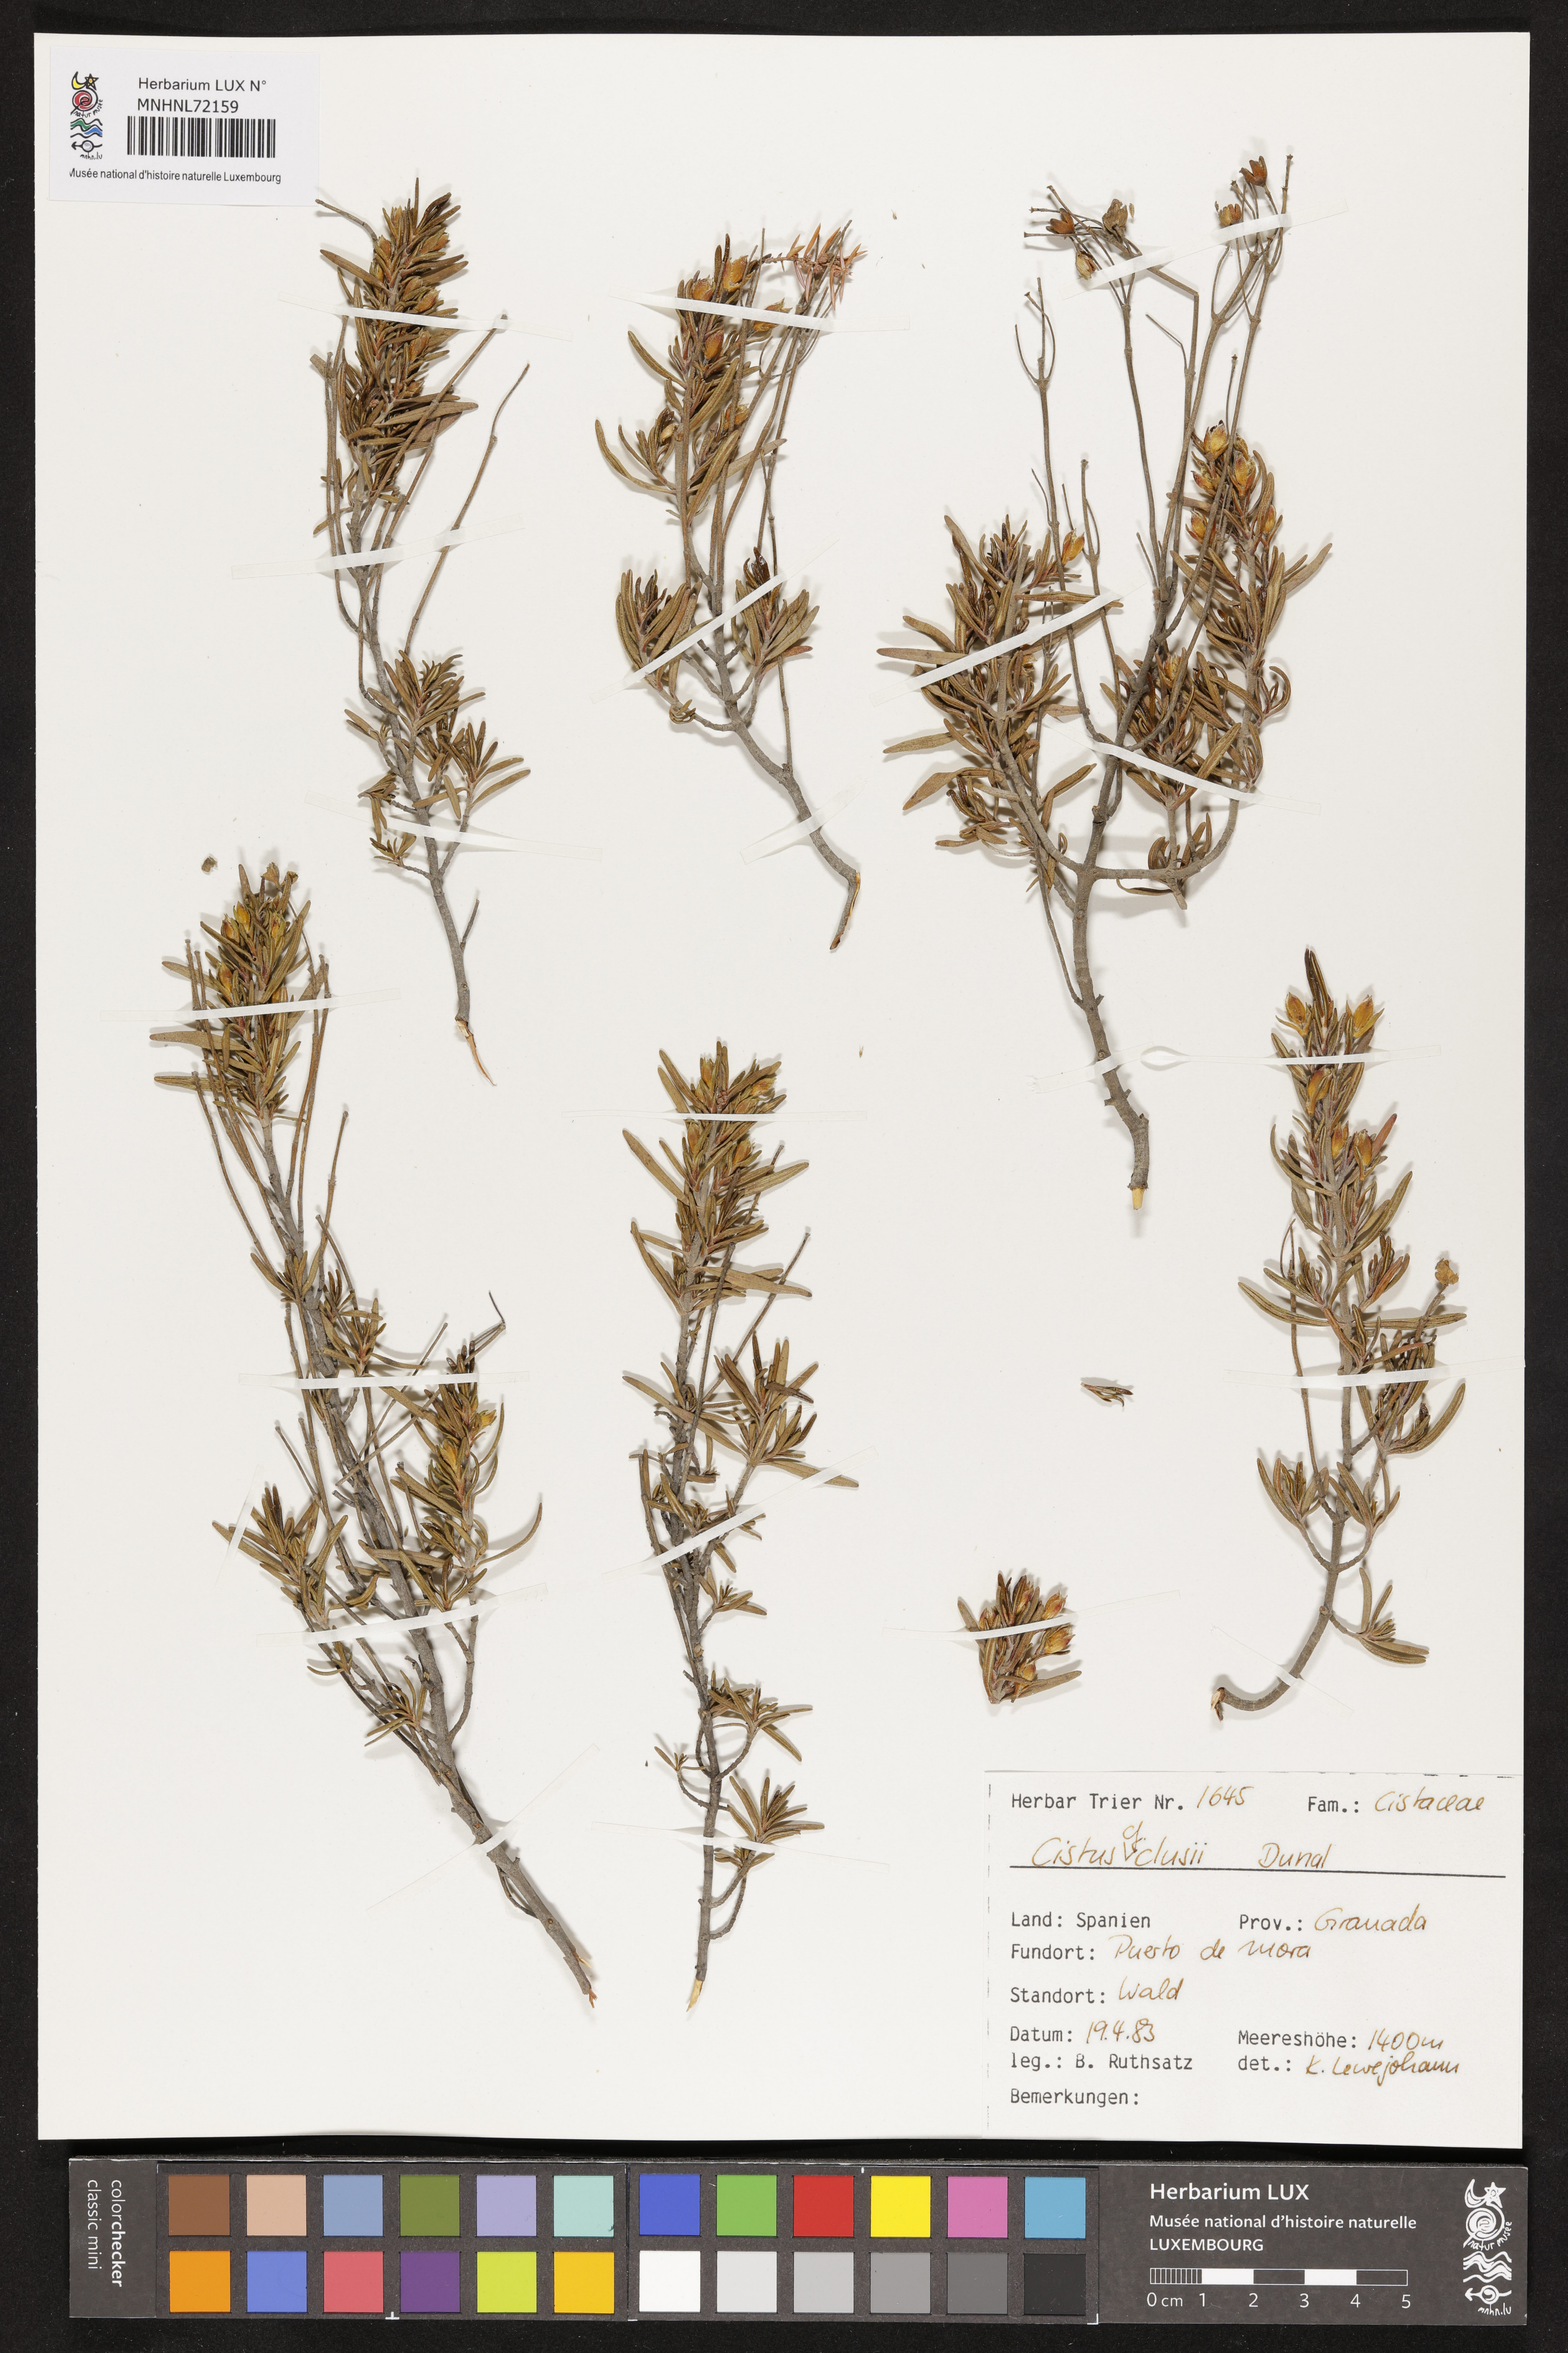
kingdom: Plantae
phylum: Tracheophyta
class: Magnoliopsida
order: Malvales
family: Cistaceae
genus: Cistus
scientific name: Cistus clusii
